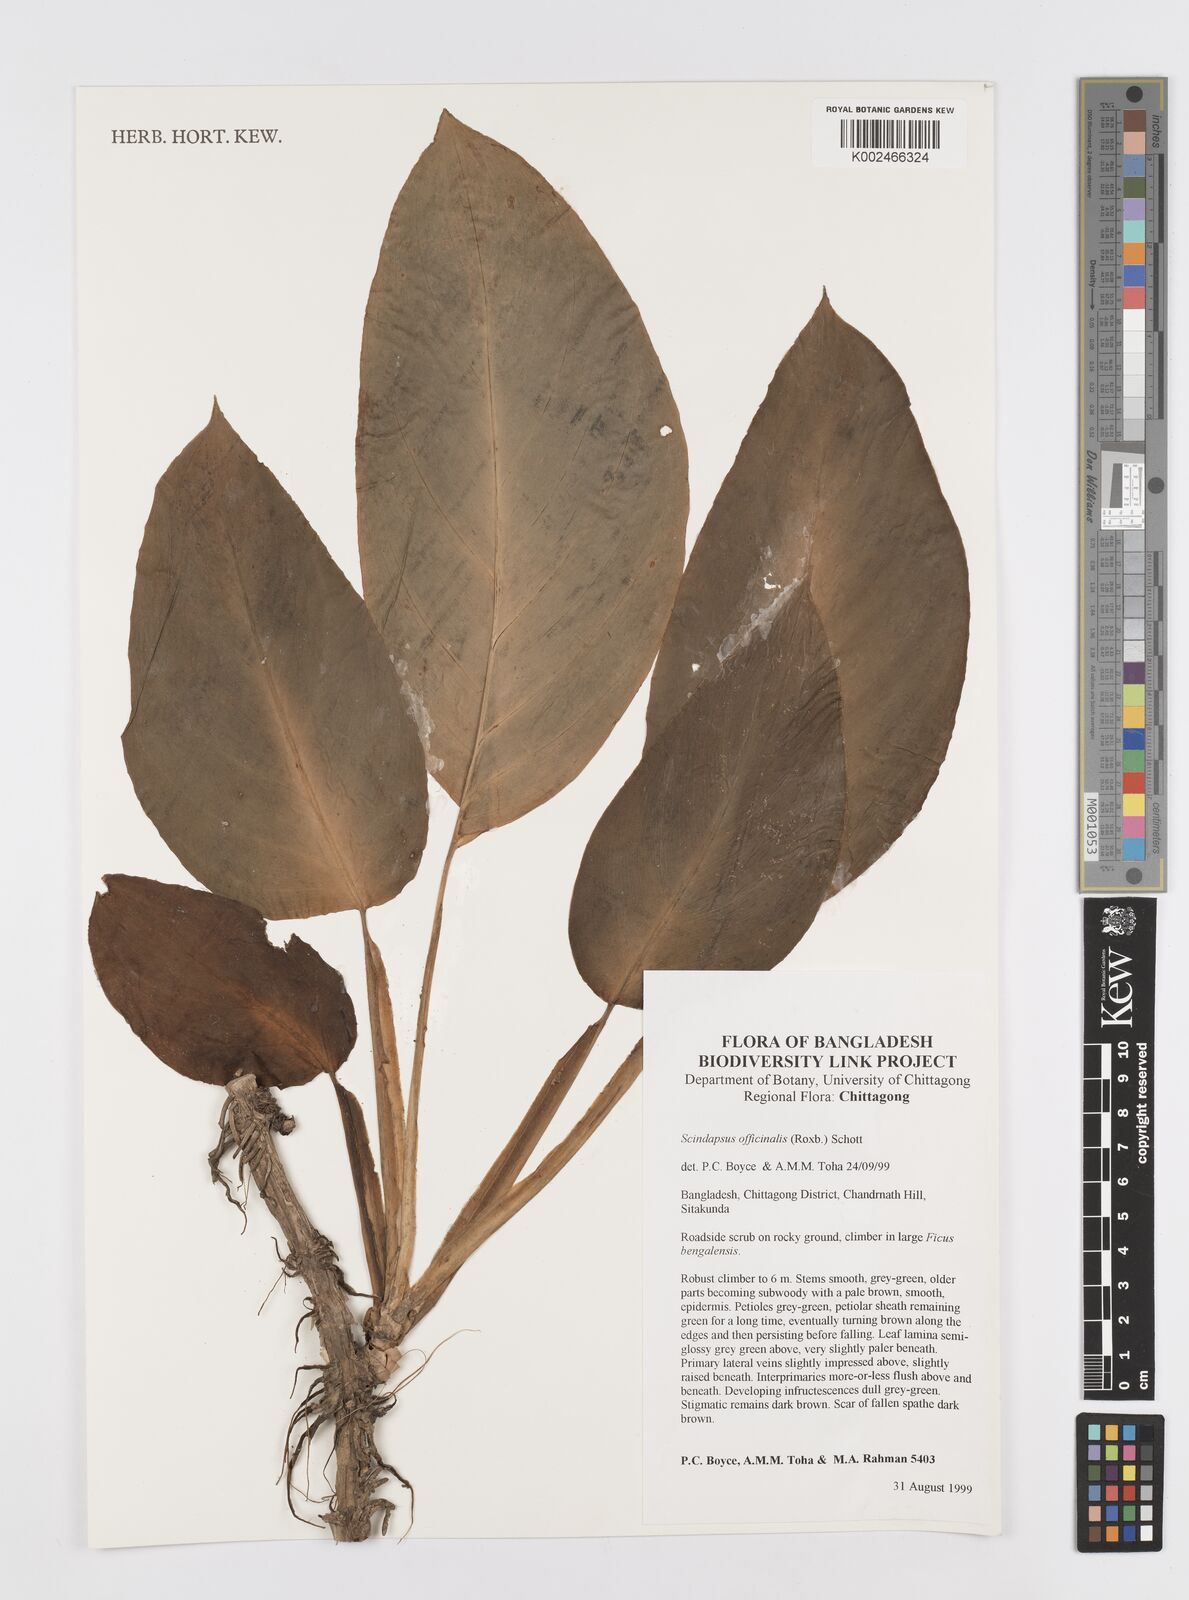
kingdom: Plantae
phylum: Tracheophyta
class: Liliopsida
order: Alismatales
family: Araceae
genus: Scindapsus
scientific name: Scindapsus officinalis
